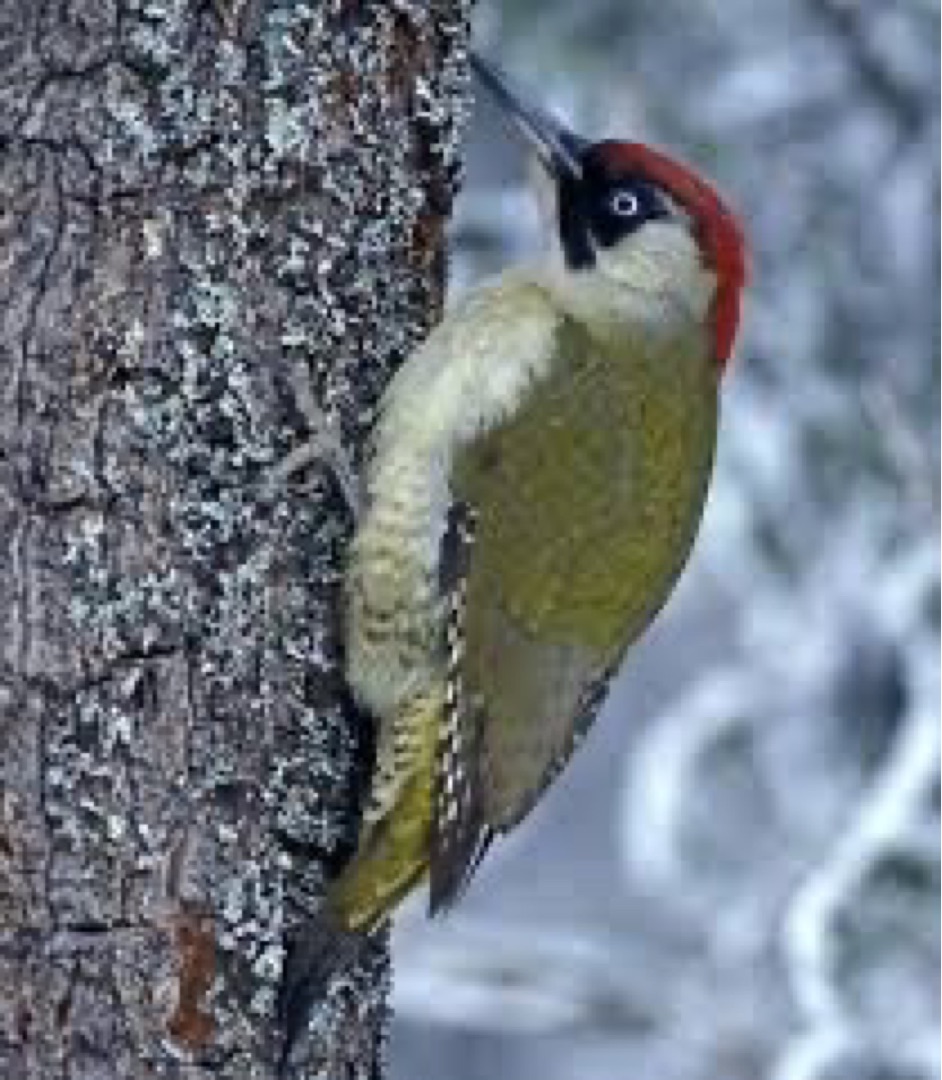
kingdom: Animalia
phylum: Chordata
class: Aves
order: Piciformes
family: Picidae
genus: Picus
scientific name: Picus viridis
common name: Grønspætte
